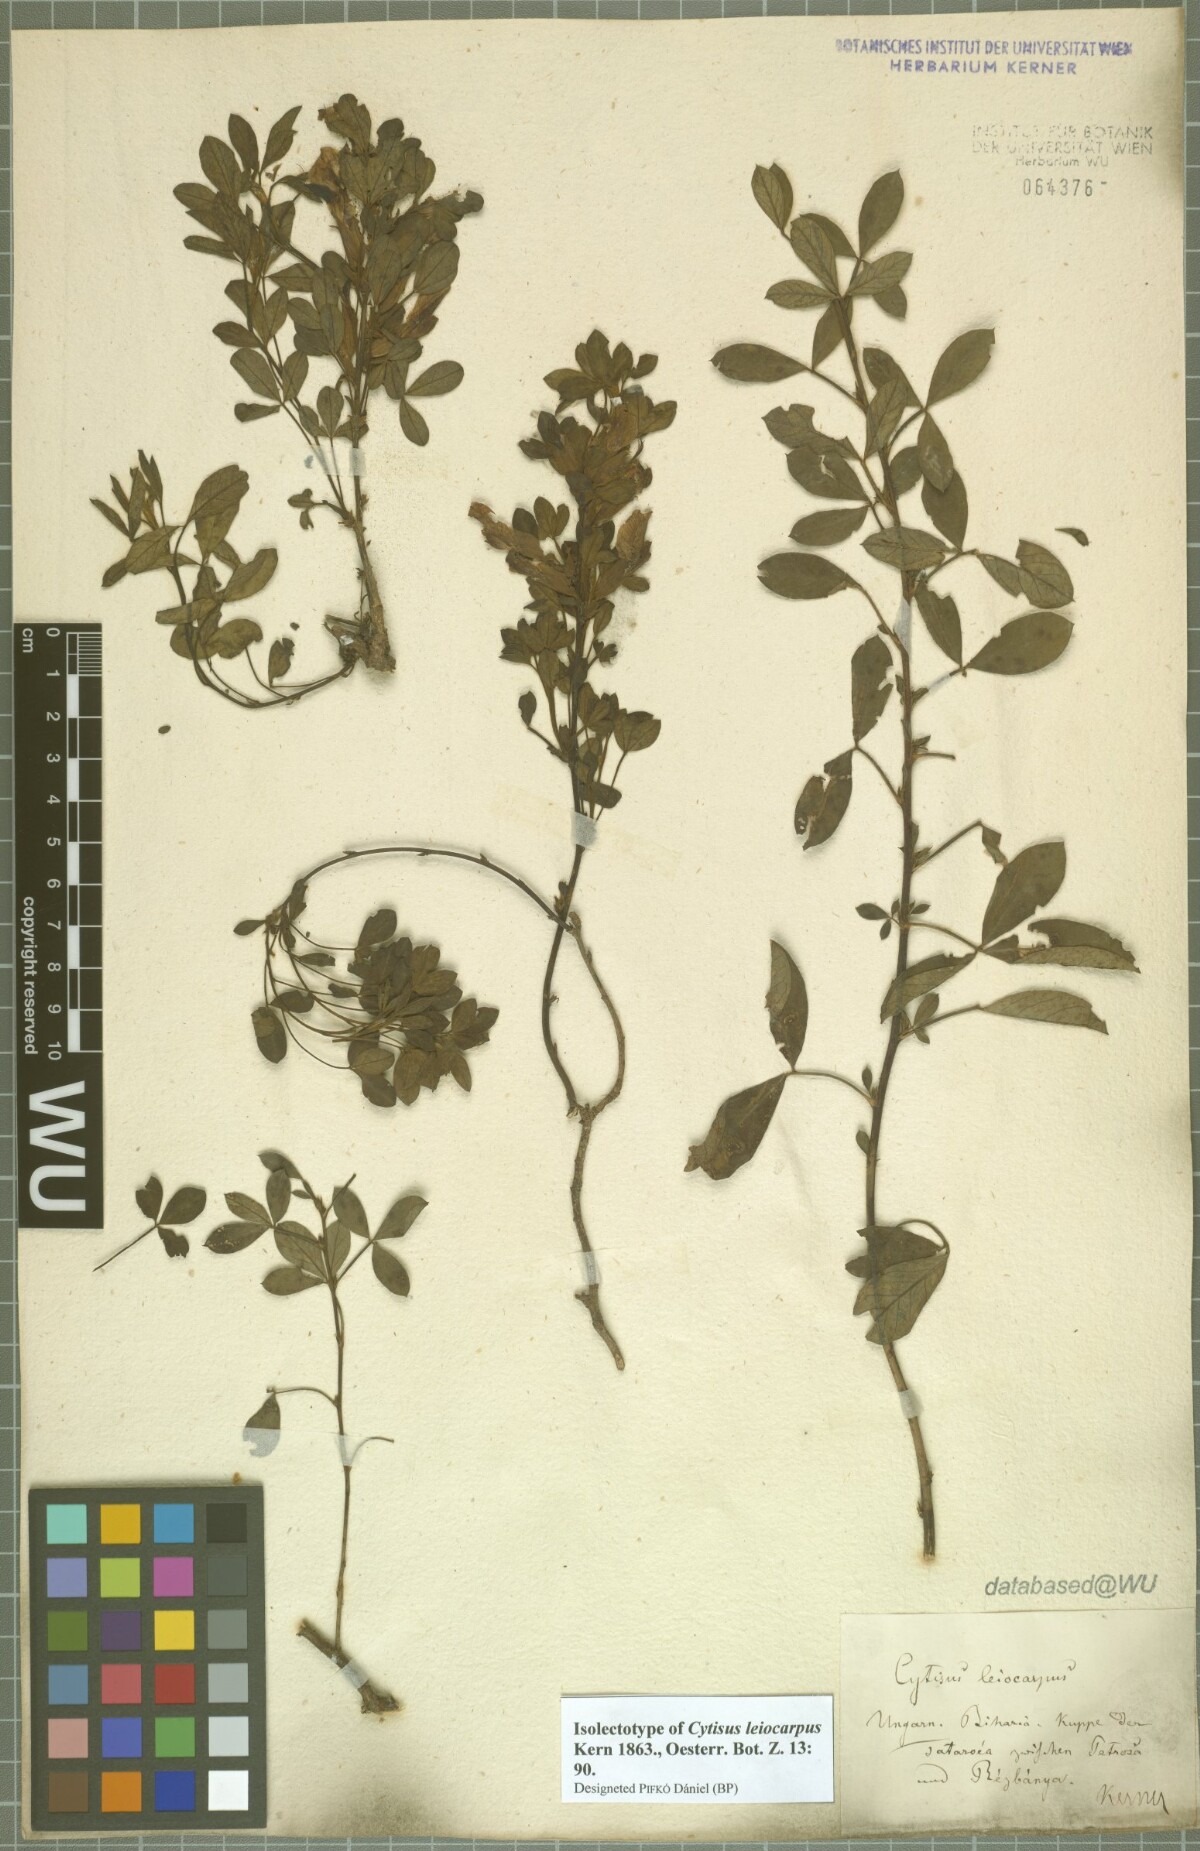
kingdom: Plantae
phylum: Tracheophyta
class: Magnoliopsida
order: Fabales
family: Fabaceae
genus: Chamaecytisus
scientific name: Chamaecytisus leiocarpus
